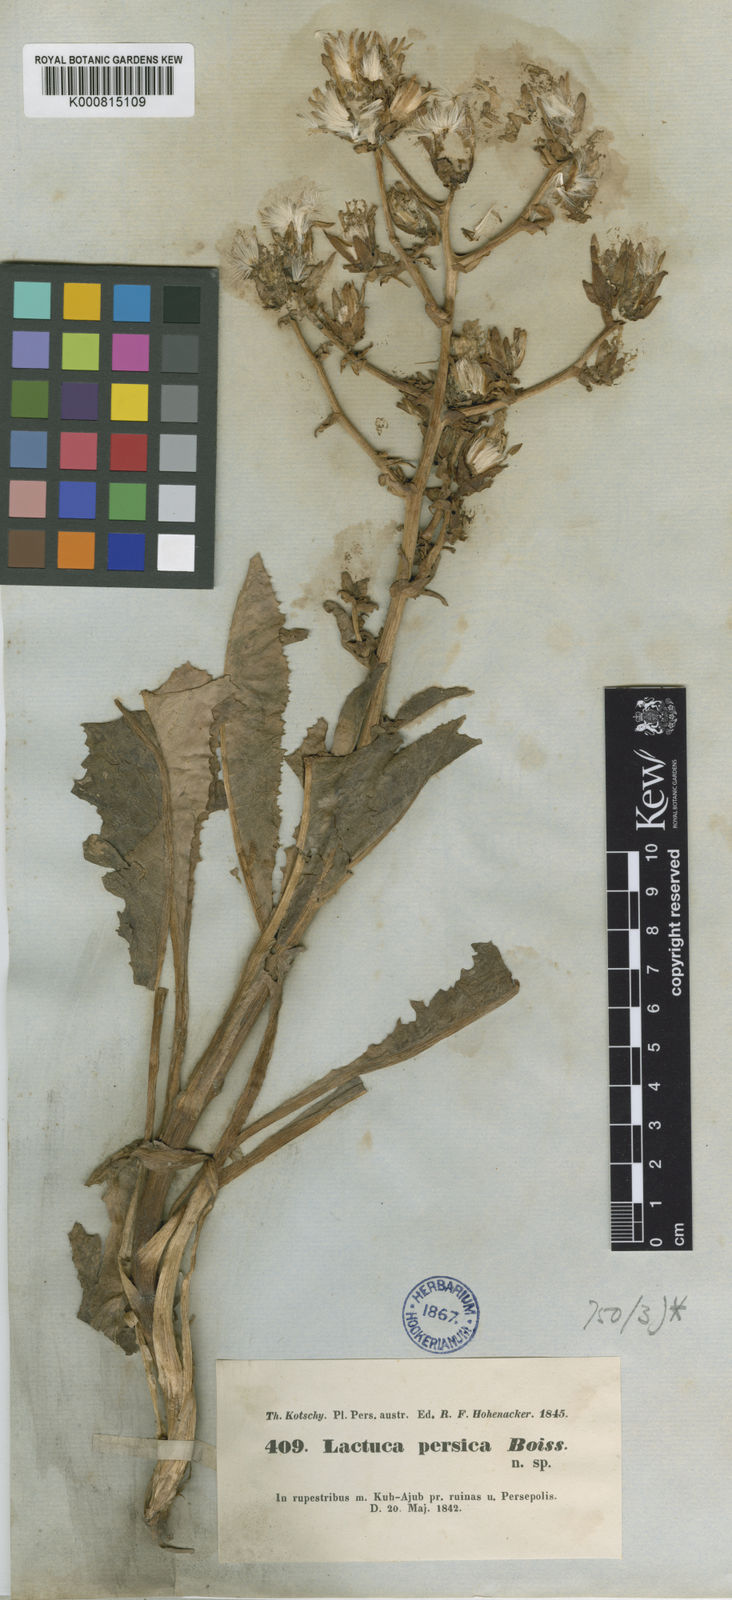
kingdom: Plantae
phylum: Tracheophyta
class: Magnoliopsida
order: Asterales
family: Asteraceae
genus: Lactuca
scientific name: Lactuca persica
